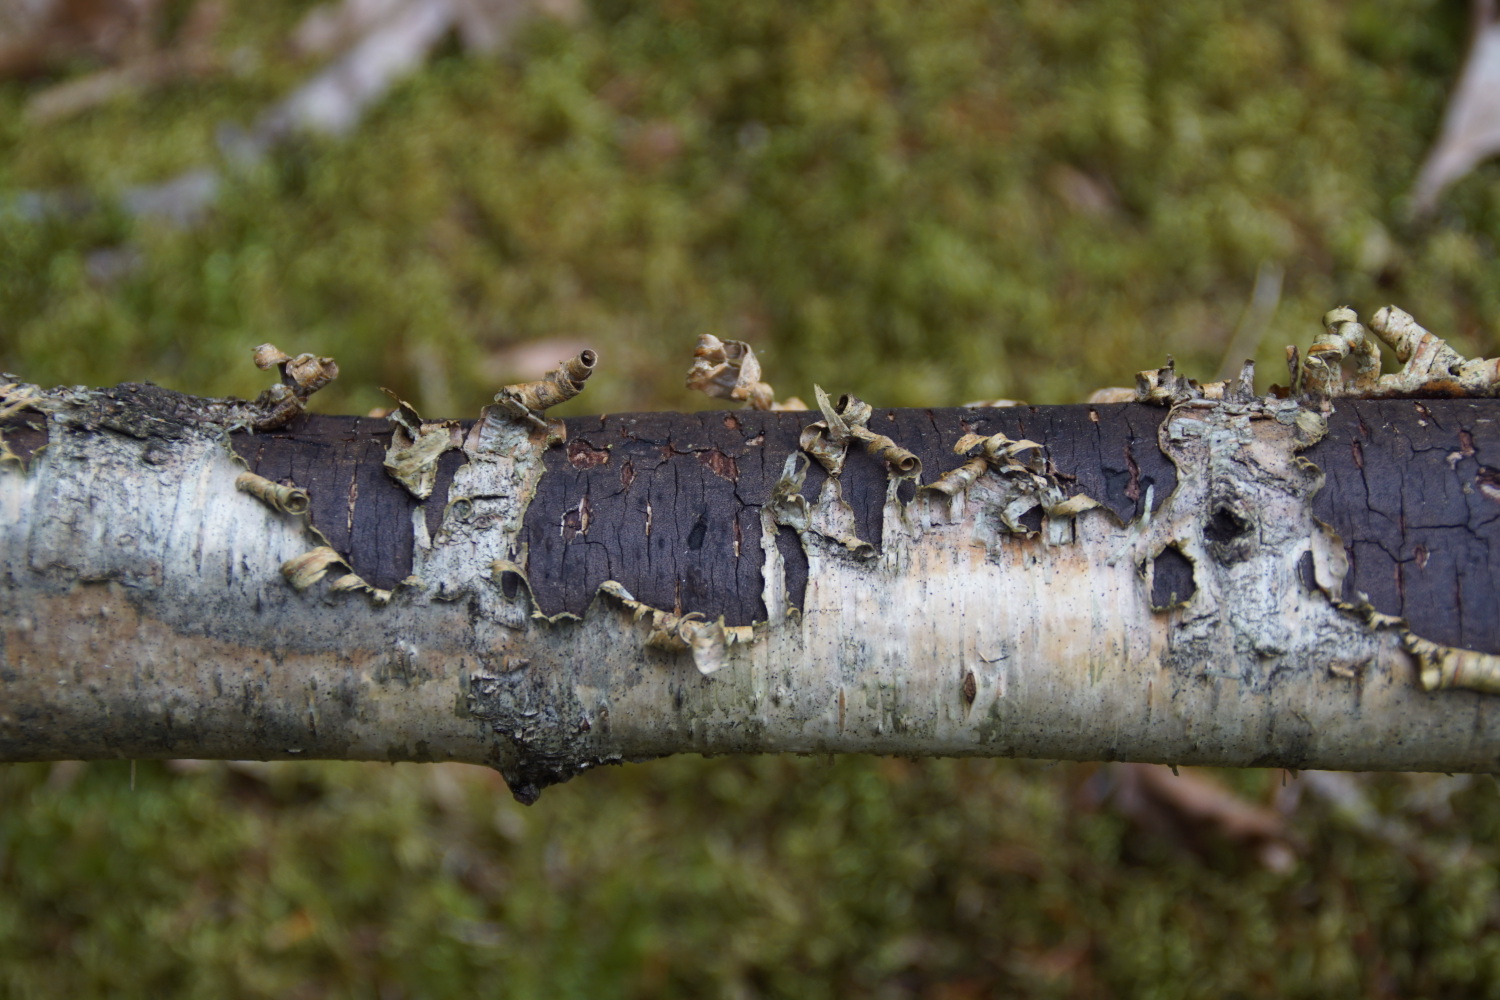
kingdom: Fungi
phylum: Ascomycota
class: Sordariomycetes
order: Xylariales
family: Diatrypaceae
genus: Diatrype
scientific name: Diatrype
